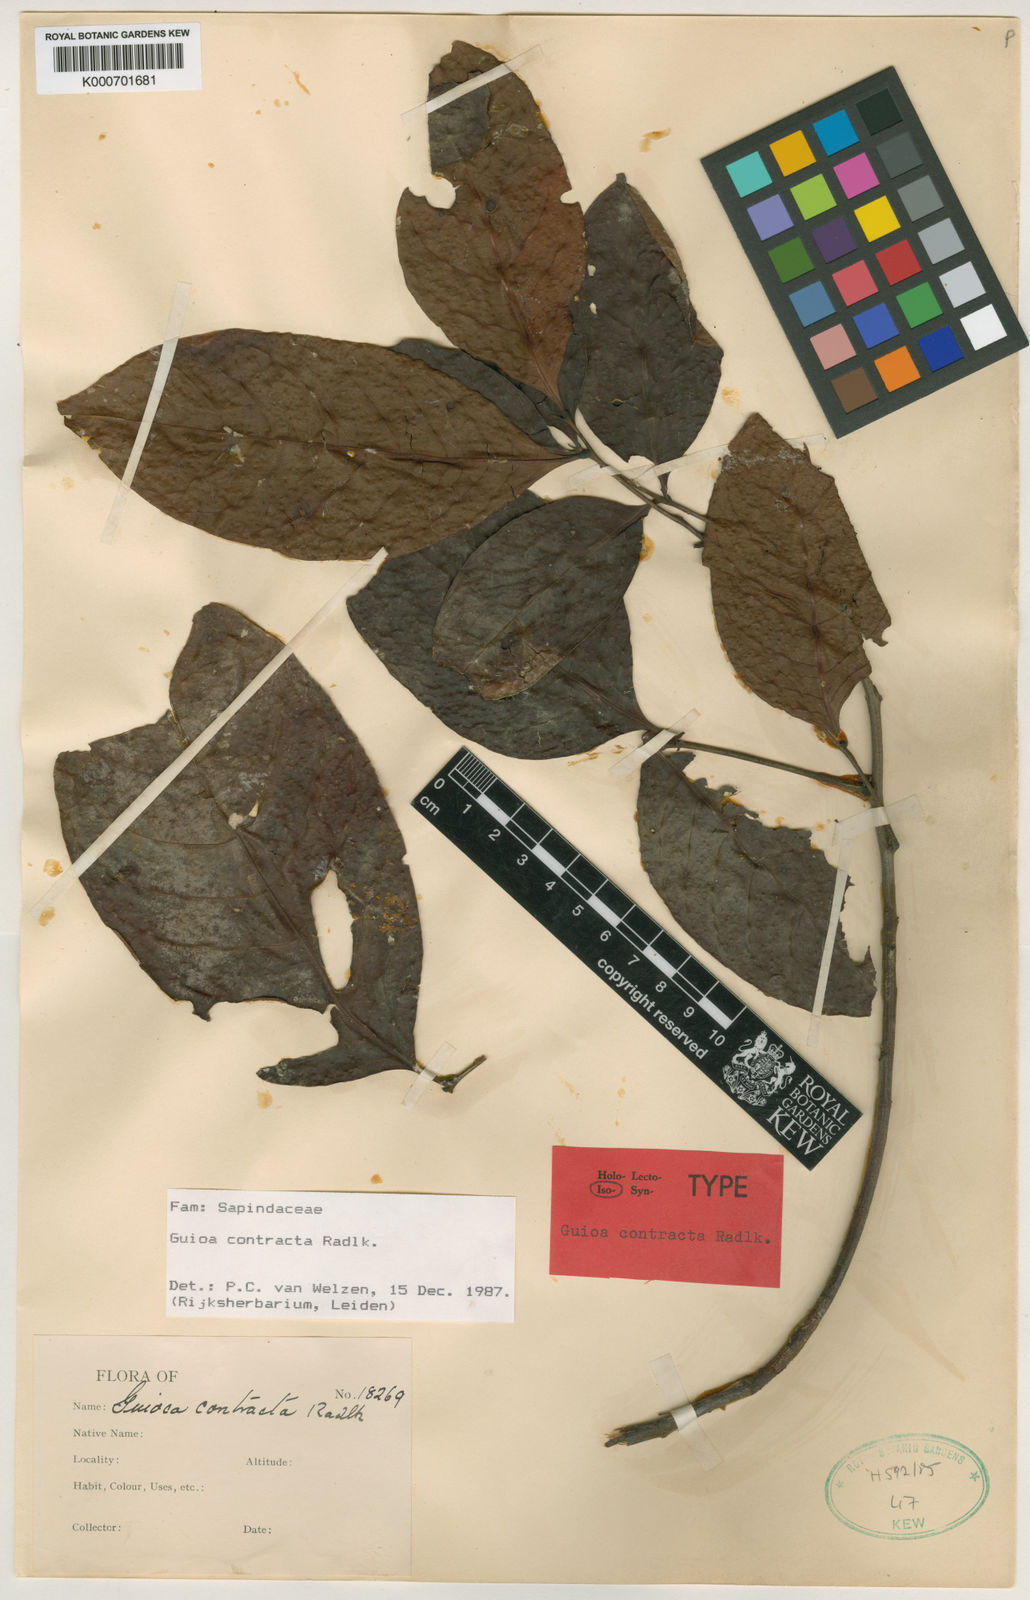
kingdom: Plantae
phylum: Tracheophyta
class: Magnoliopsida
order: Sapindales
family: Sapindaceae
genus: Guioa
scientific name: Guioa contracta
